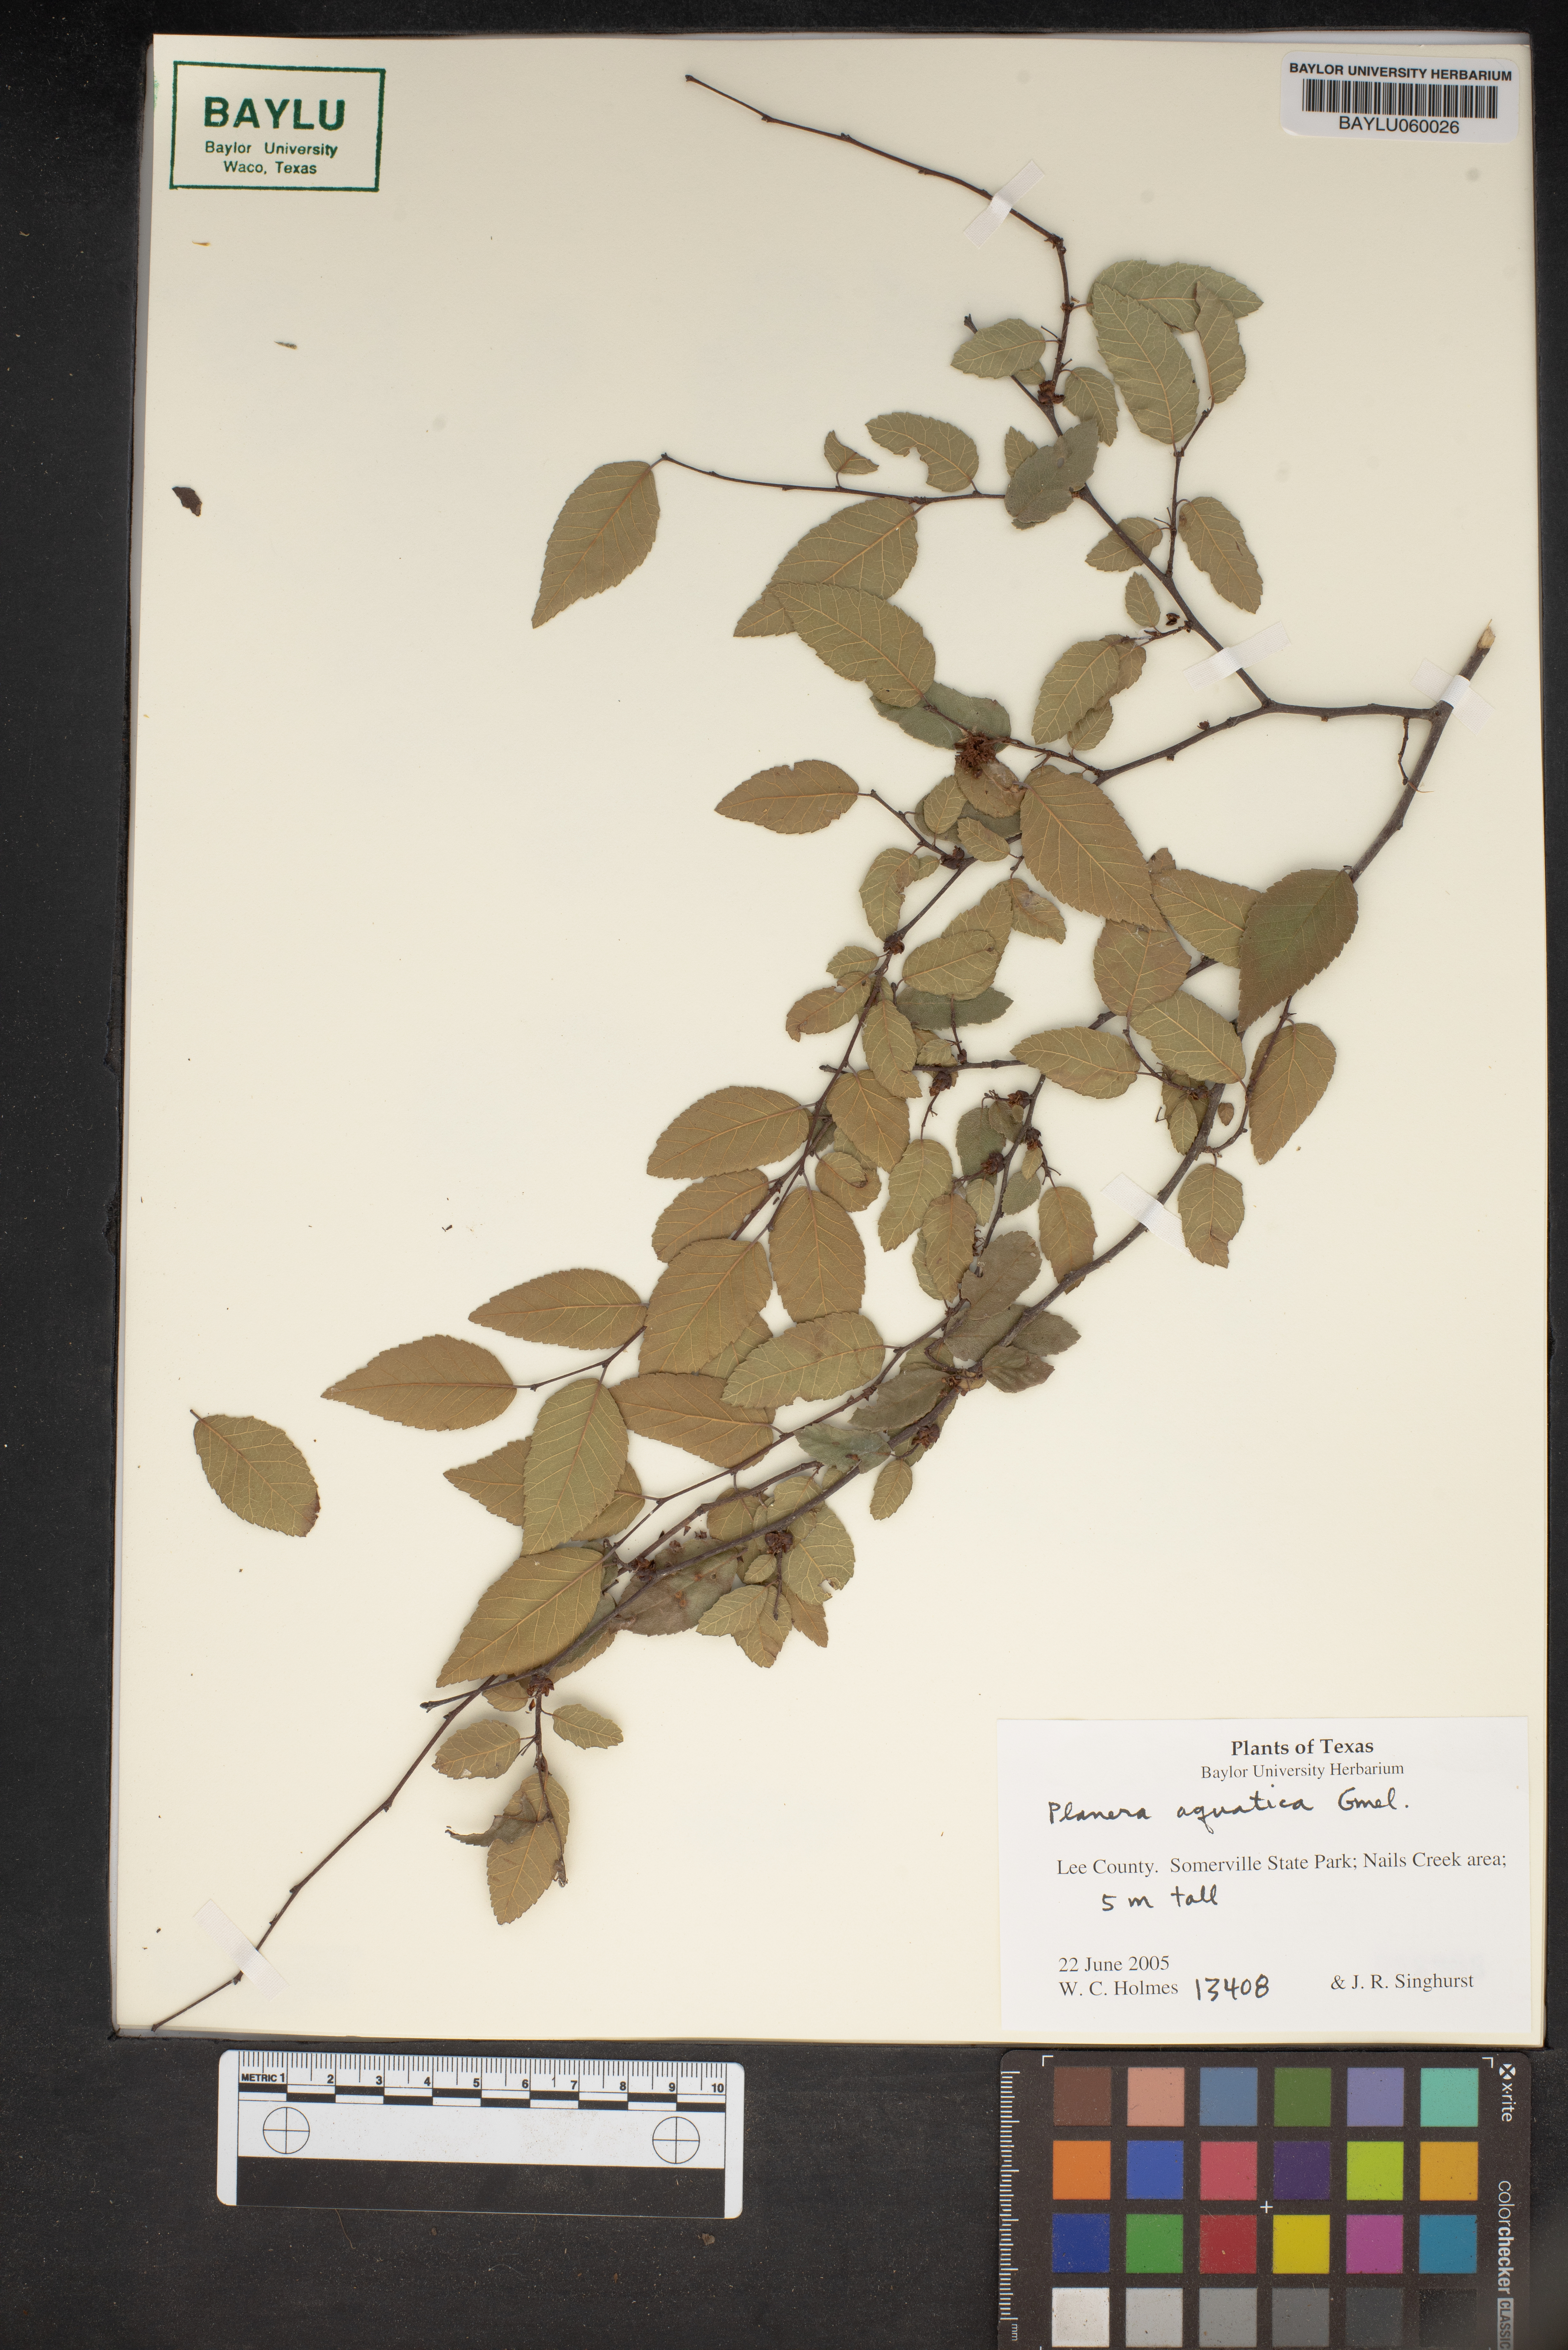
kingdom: Plantae
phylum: Tracheophyta
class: Magnoliopsida
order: Rosales
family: Ulmaceae
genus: Planera
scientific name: Planera aquatica
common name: Water-elm
